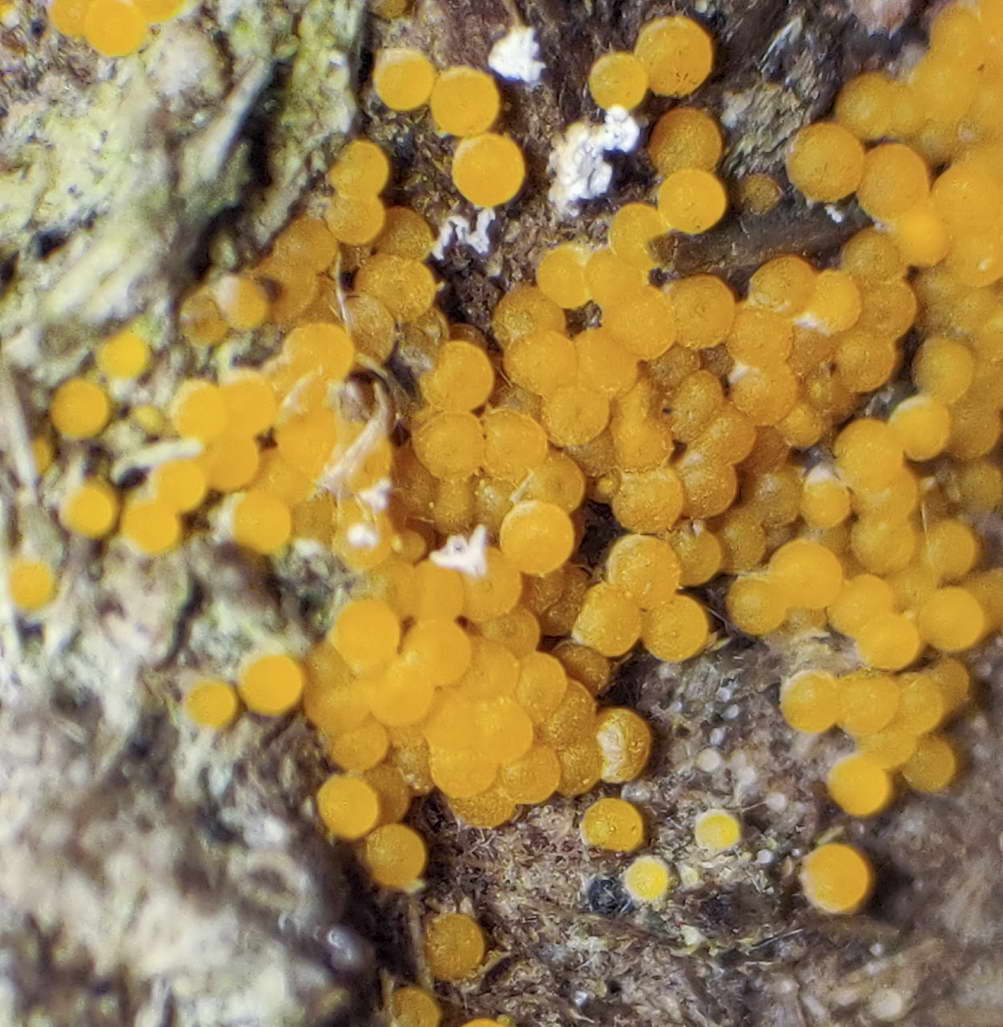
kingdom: Fungi
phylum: Ascomycota
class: Pezizomycetes
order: Pezizales
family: Pyronemataceae
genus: Cheilymenia
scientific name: Cheilymenia granulata
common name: møgbæger
